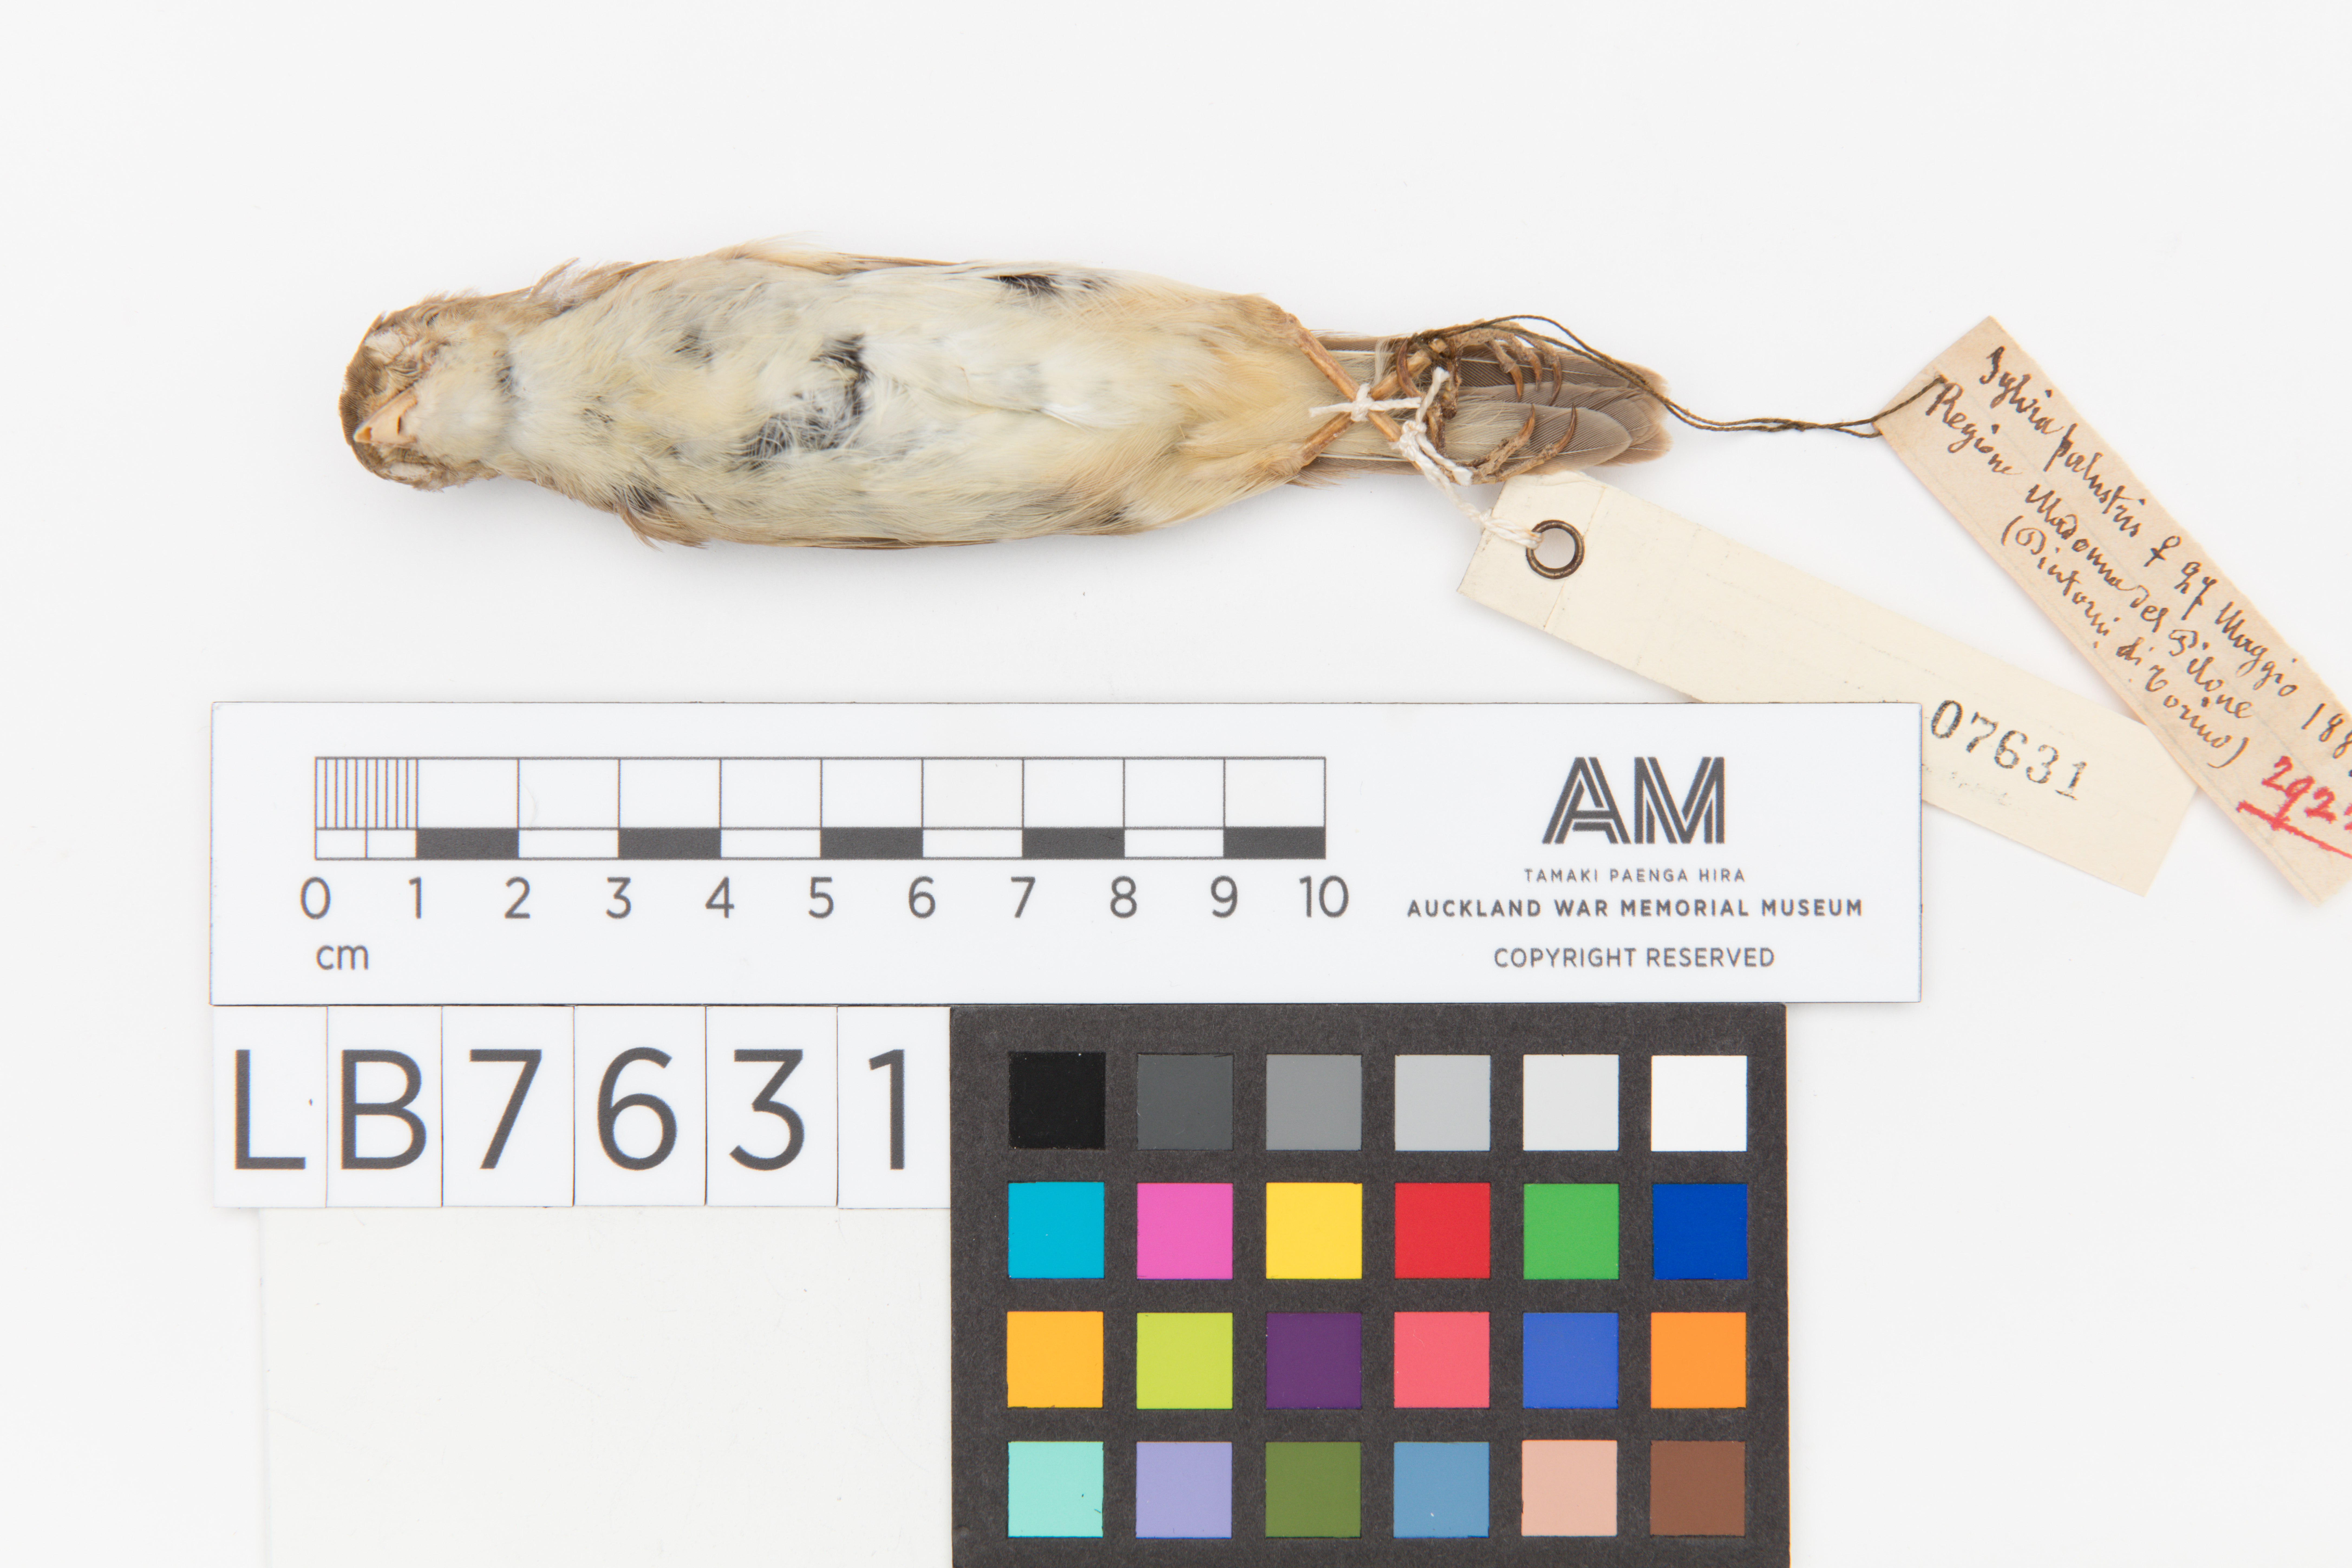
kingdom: Animalia
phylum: Chordata
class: Aves
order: Passeriformes
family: Acrocephalidae
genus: Acrocephalus
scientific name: Acrocephalus palustris
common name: Marsh warbler
